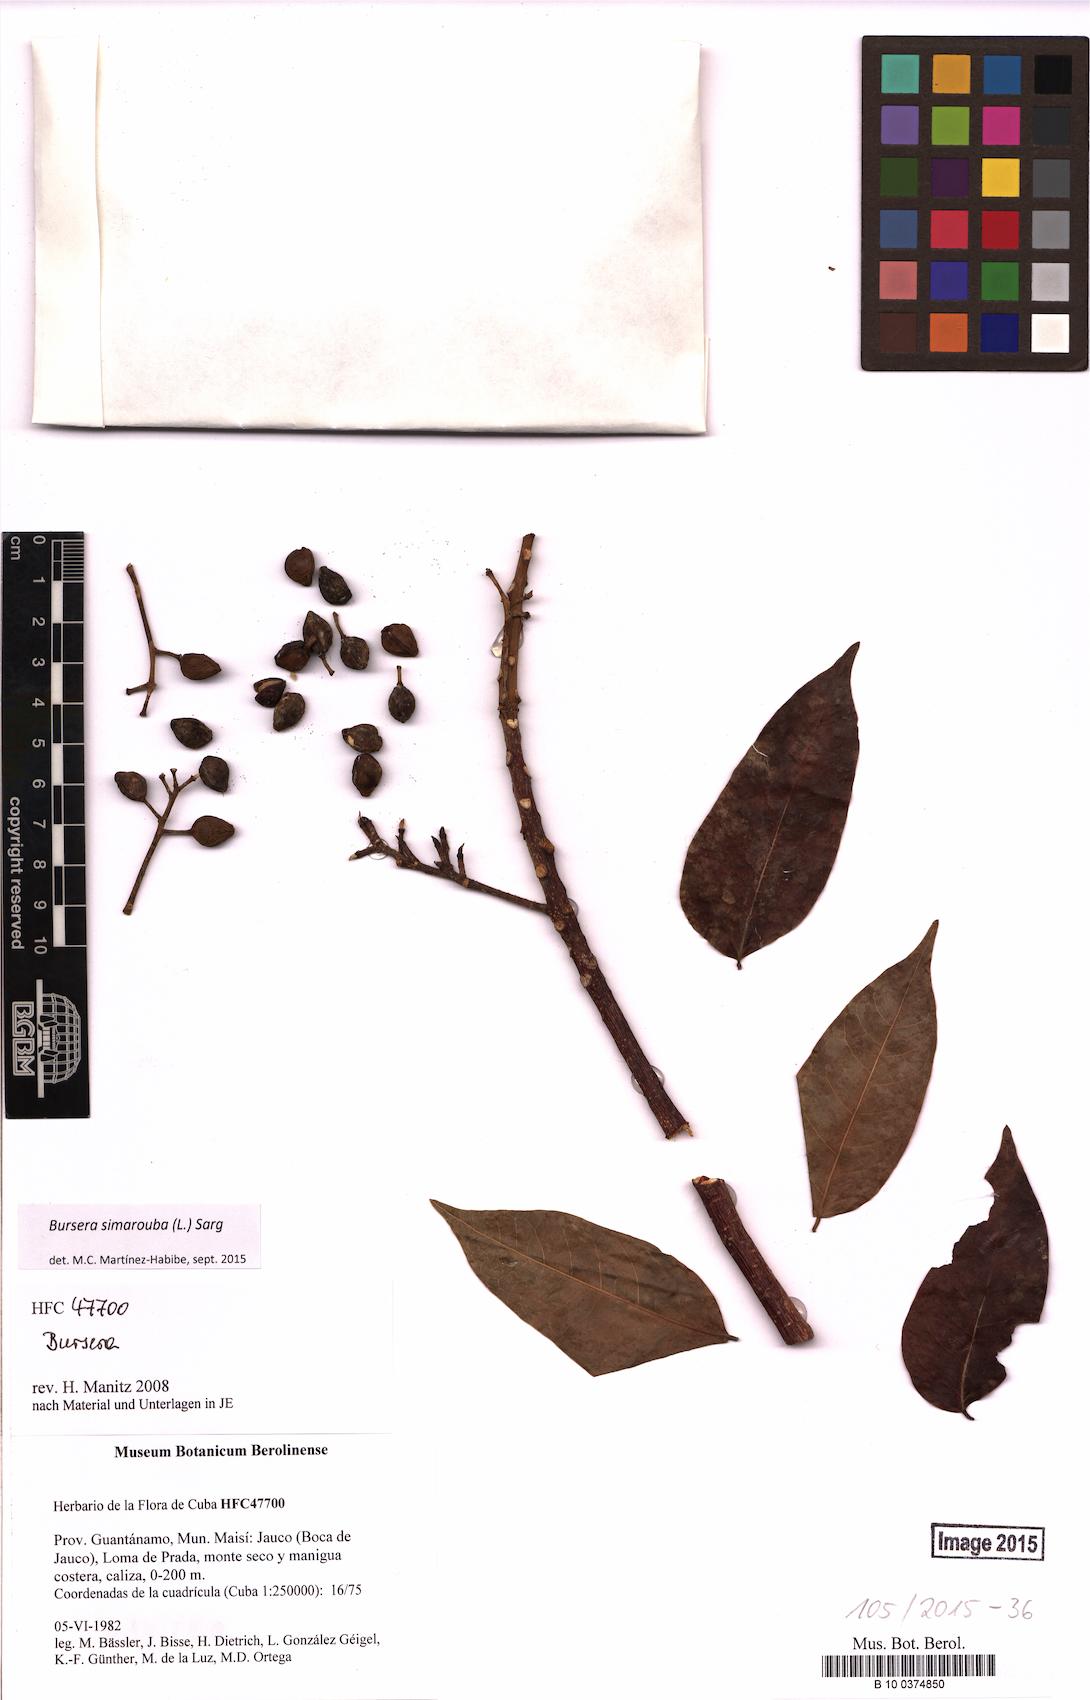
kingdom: Plantae
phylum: Tracheophyta
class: Magnoliopsida
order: Sapindales
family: Burseraceae
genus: Bursera
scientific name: Bursera simaruba
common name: Turpentine tree
